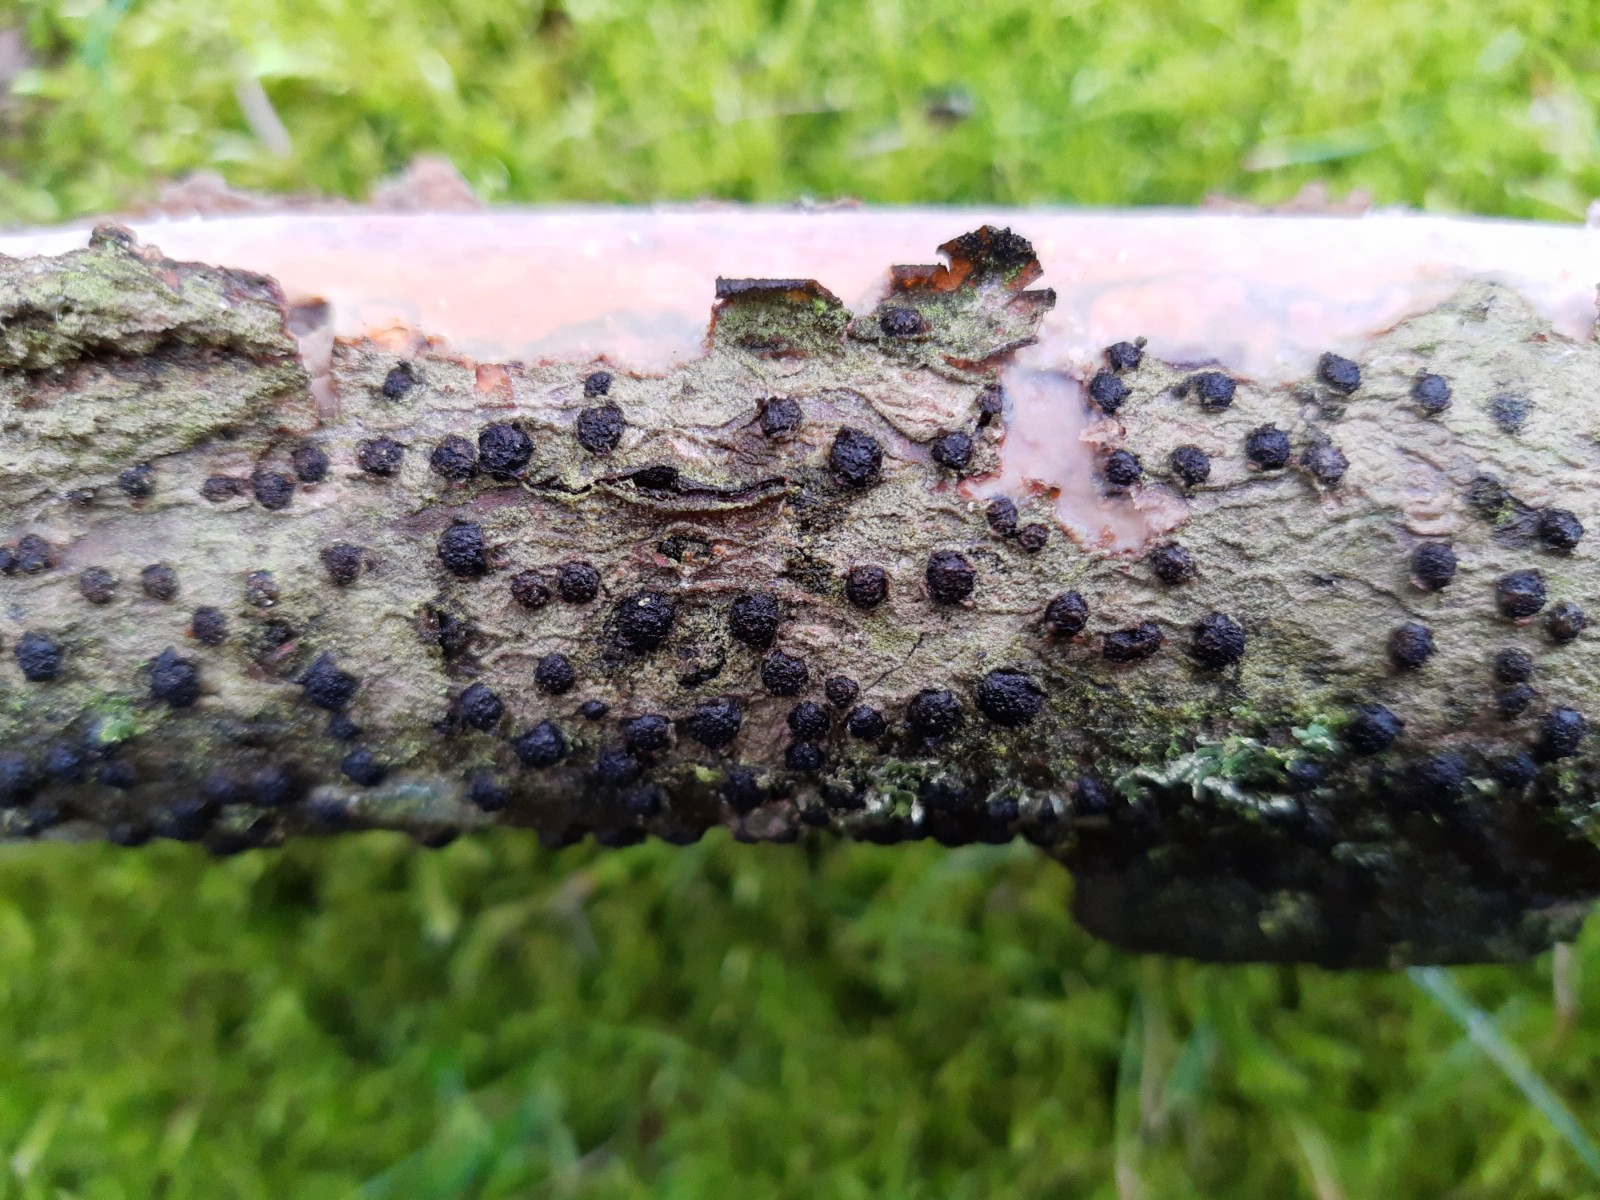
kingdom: Fungi
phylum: Ascomycota
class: Sordariomycetes
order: Xylariales
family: Diatrypaceae
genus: Diatrypella
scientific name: Diatrypella quercina
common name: ege-kulskorpe
